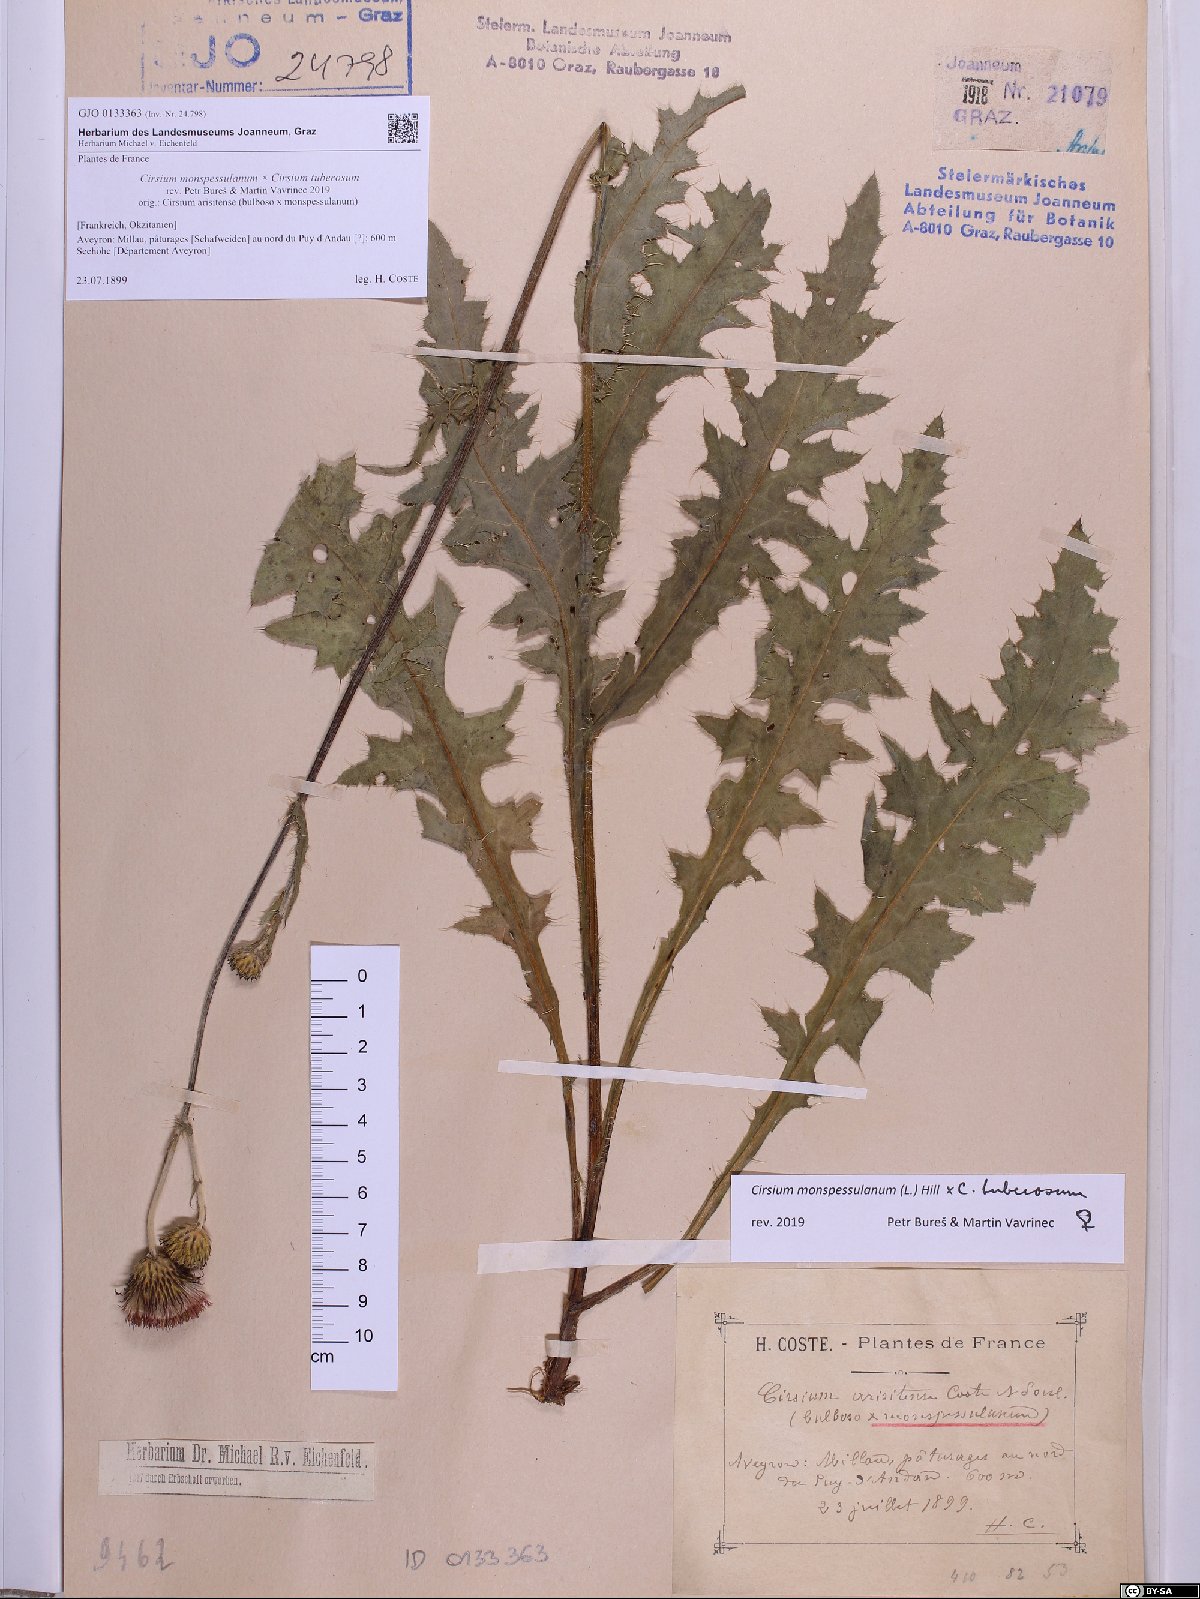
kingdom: Plantae
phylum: Tracheophyta
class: Magnoliopsida
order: Asterales
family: Asteraceae
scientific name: Asteraceae
